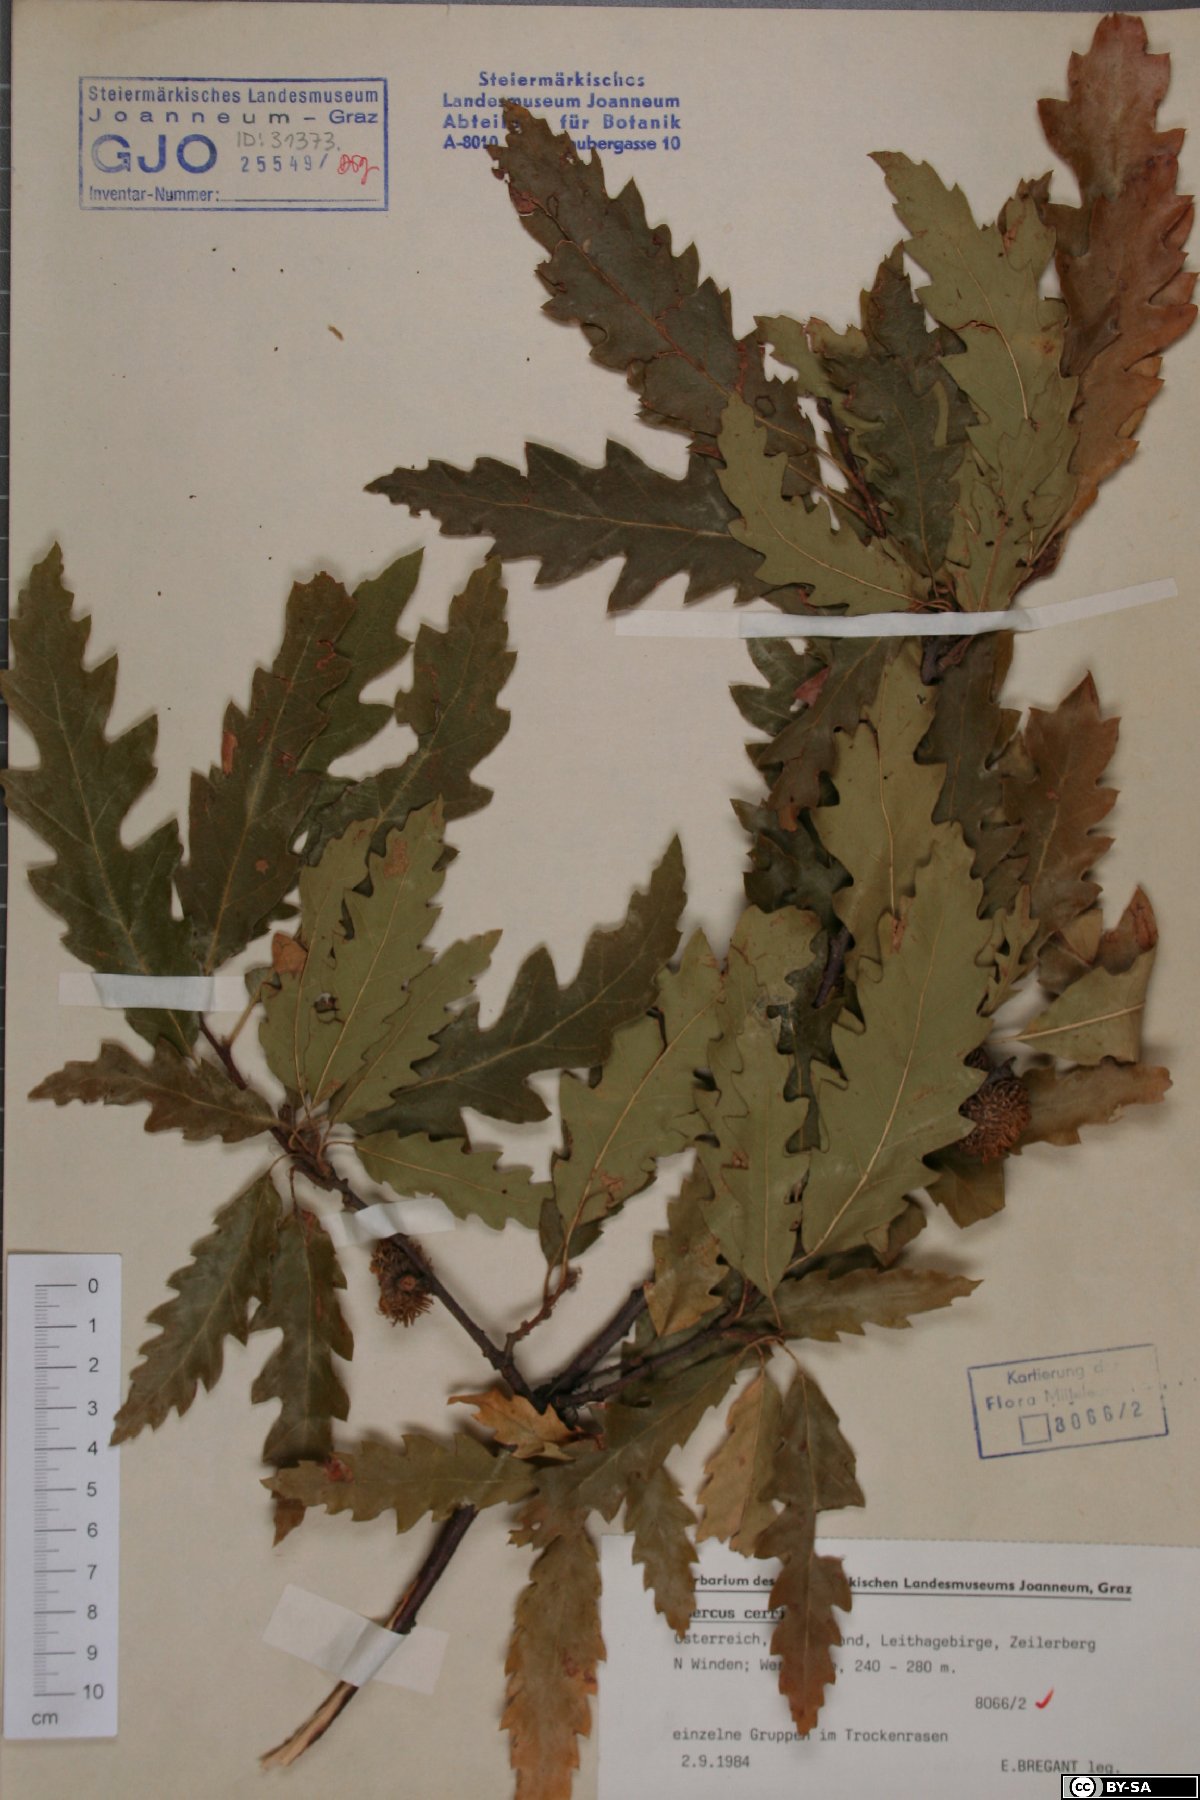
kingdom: Plantae
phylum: Tracheophyta
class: Magnoliopsida
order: Fagales
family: Fagaceae
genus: Quercus
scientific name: Quercus cerris
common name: Turkey oak
